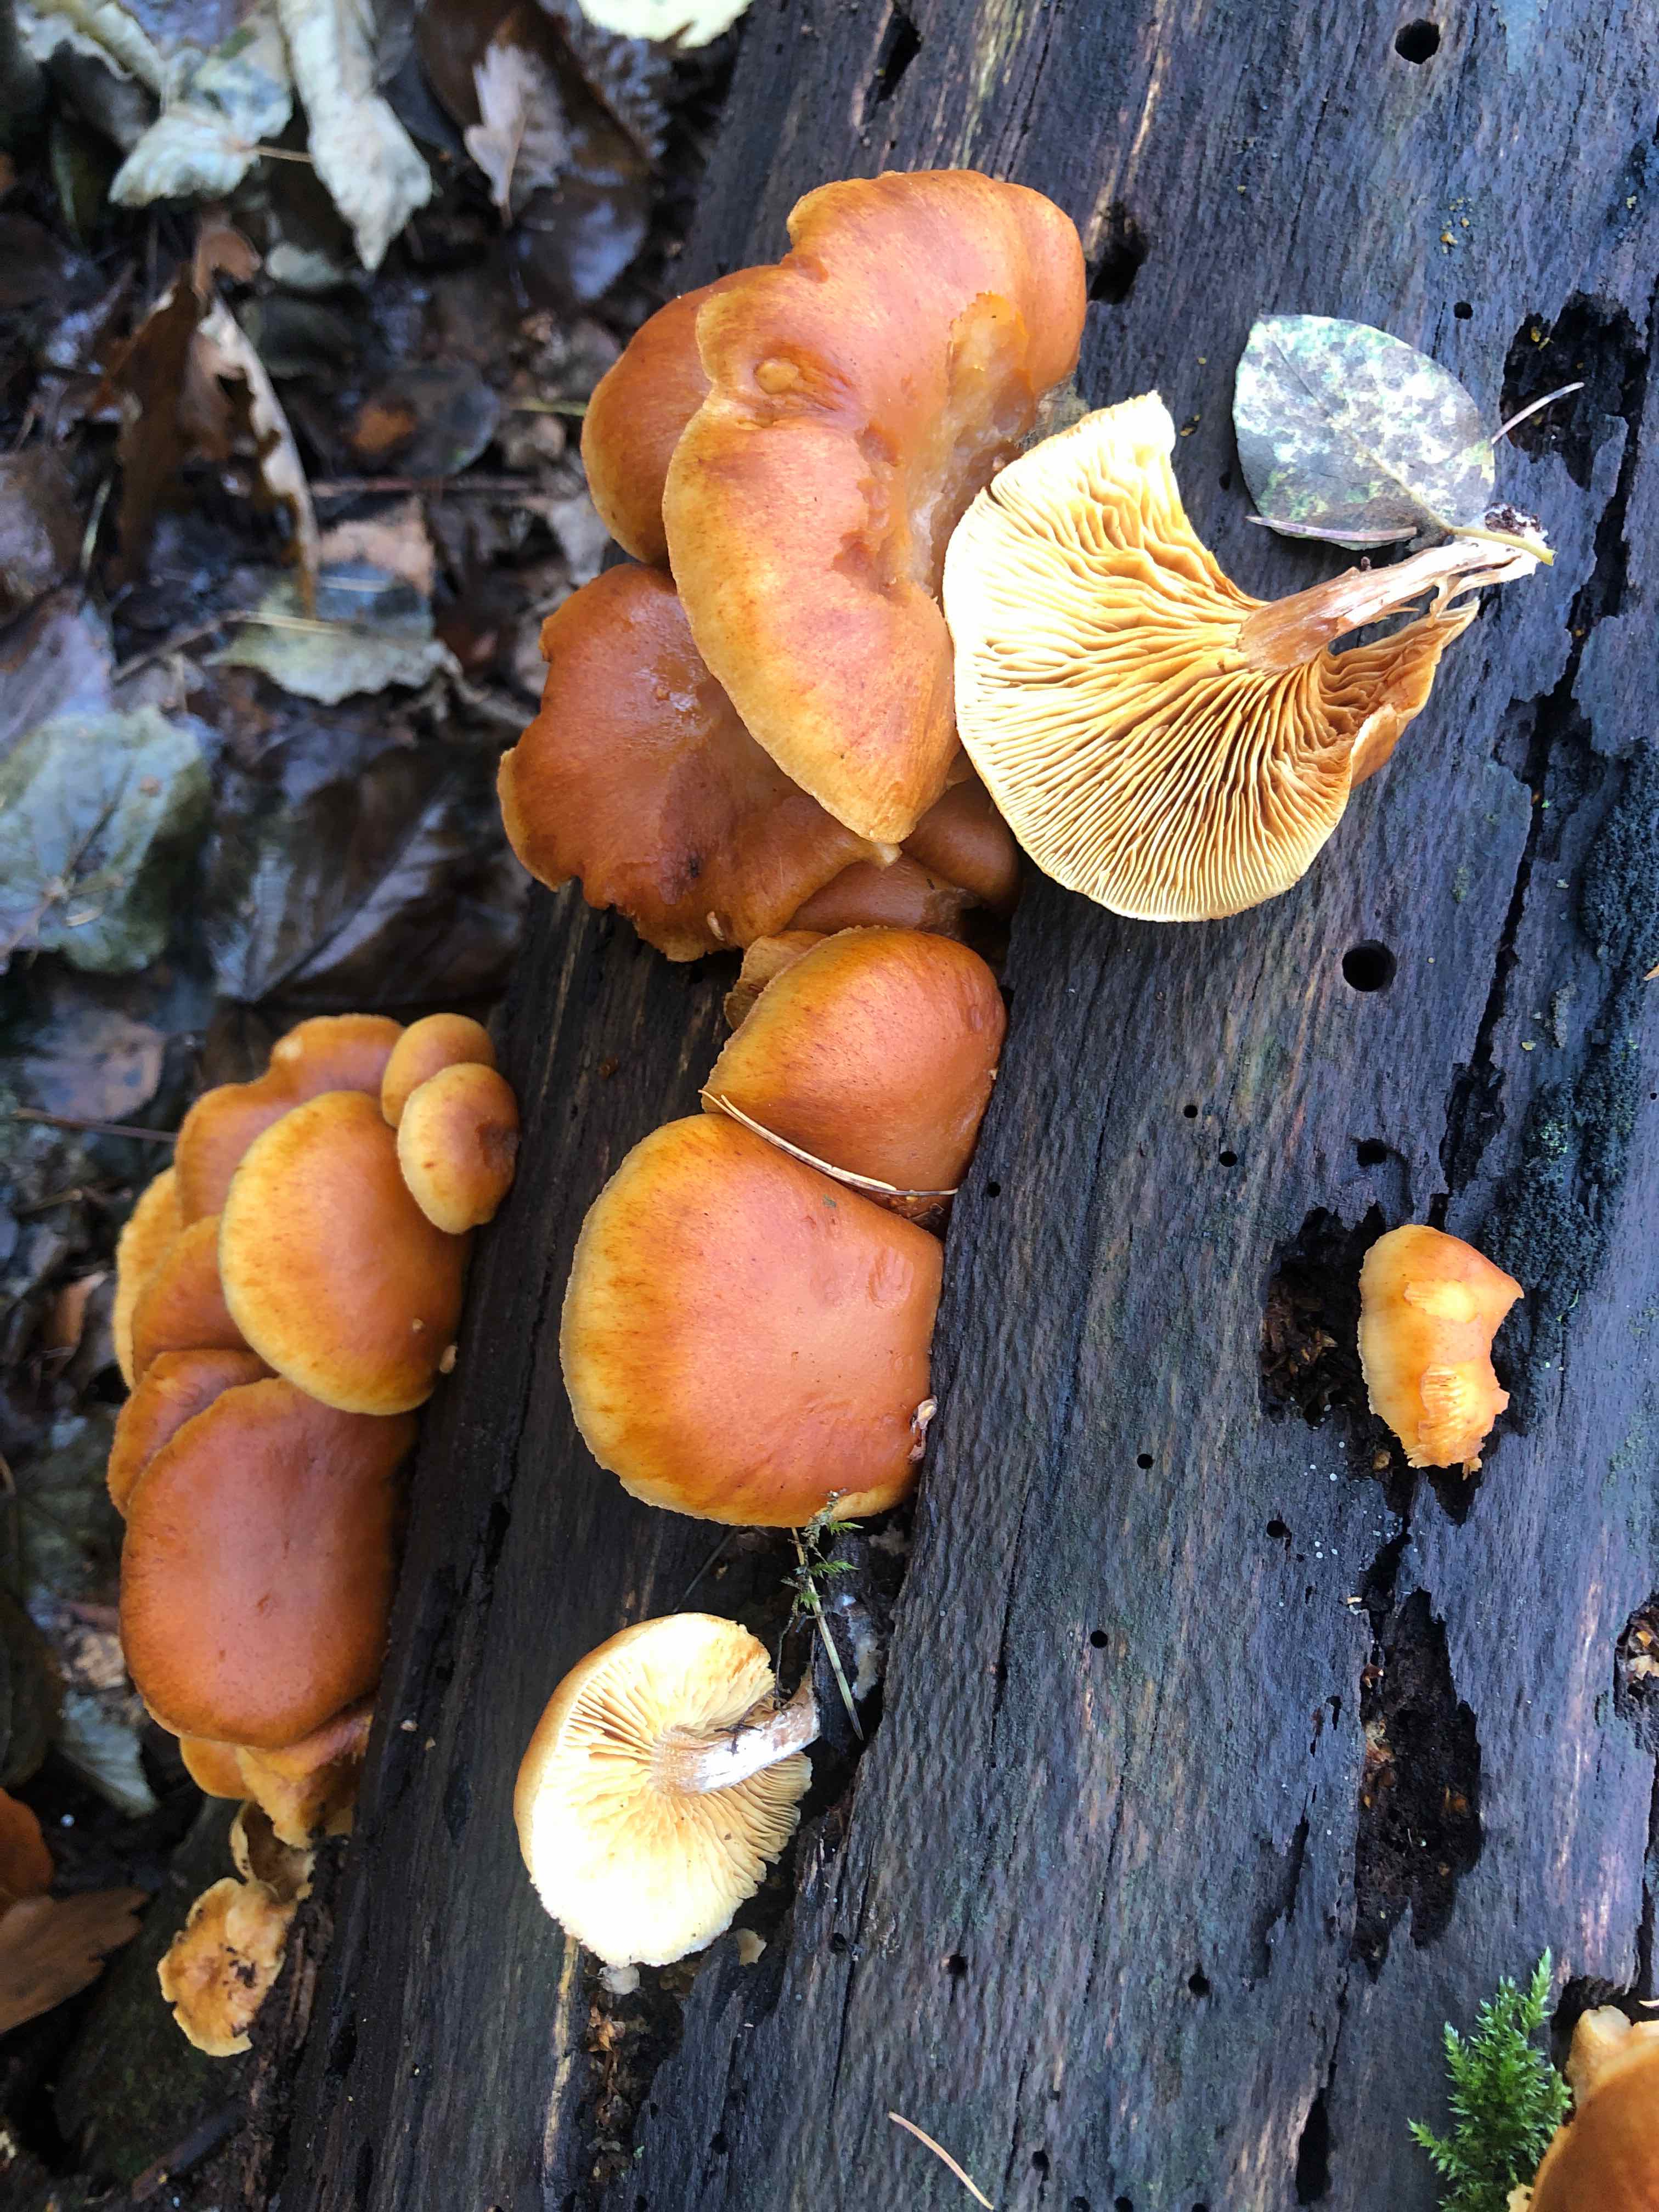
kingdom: Fungi
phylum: Basidiomycota
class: Agaricomycetes
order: Agaricales
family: Hymenogastraceae
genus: Gymnopilus
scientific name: Gymnopilus penetrans
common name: plettet flammehat
